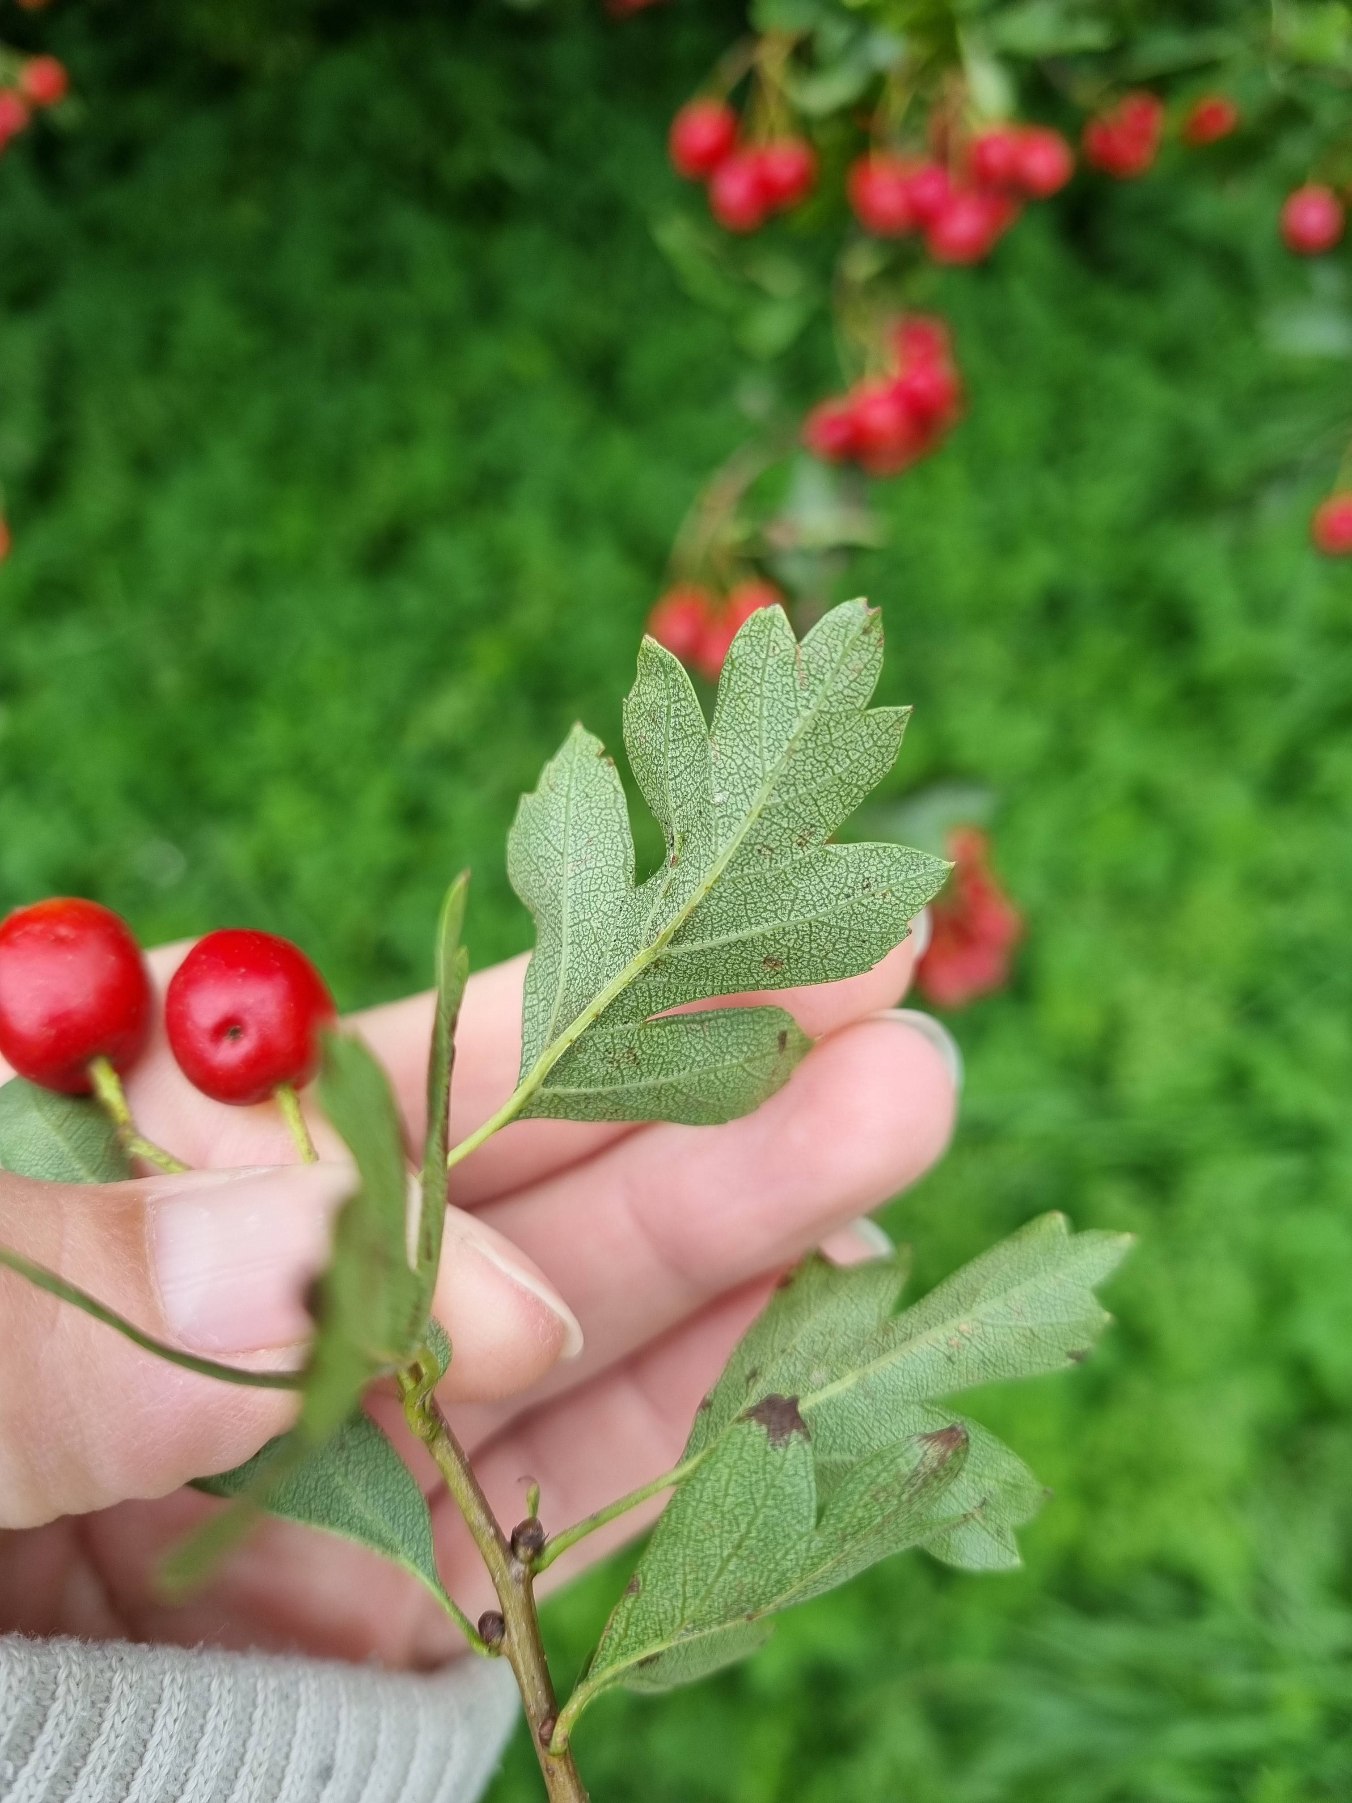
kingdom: Plantae
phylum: Tracheophyta
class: Magnoliopsida
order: Rosales
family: Rosaceae
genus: Crataegus
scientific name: Crataegus monogyna
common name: Engriflet hvidtjørn
